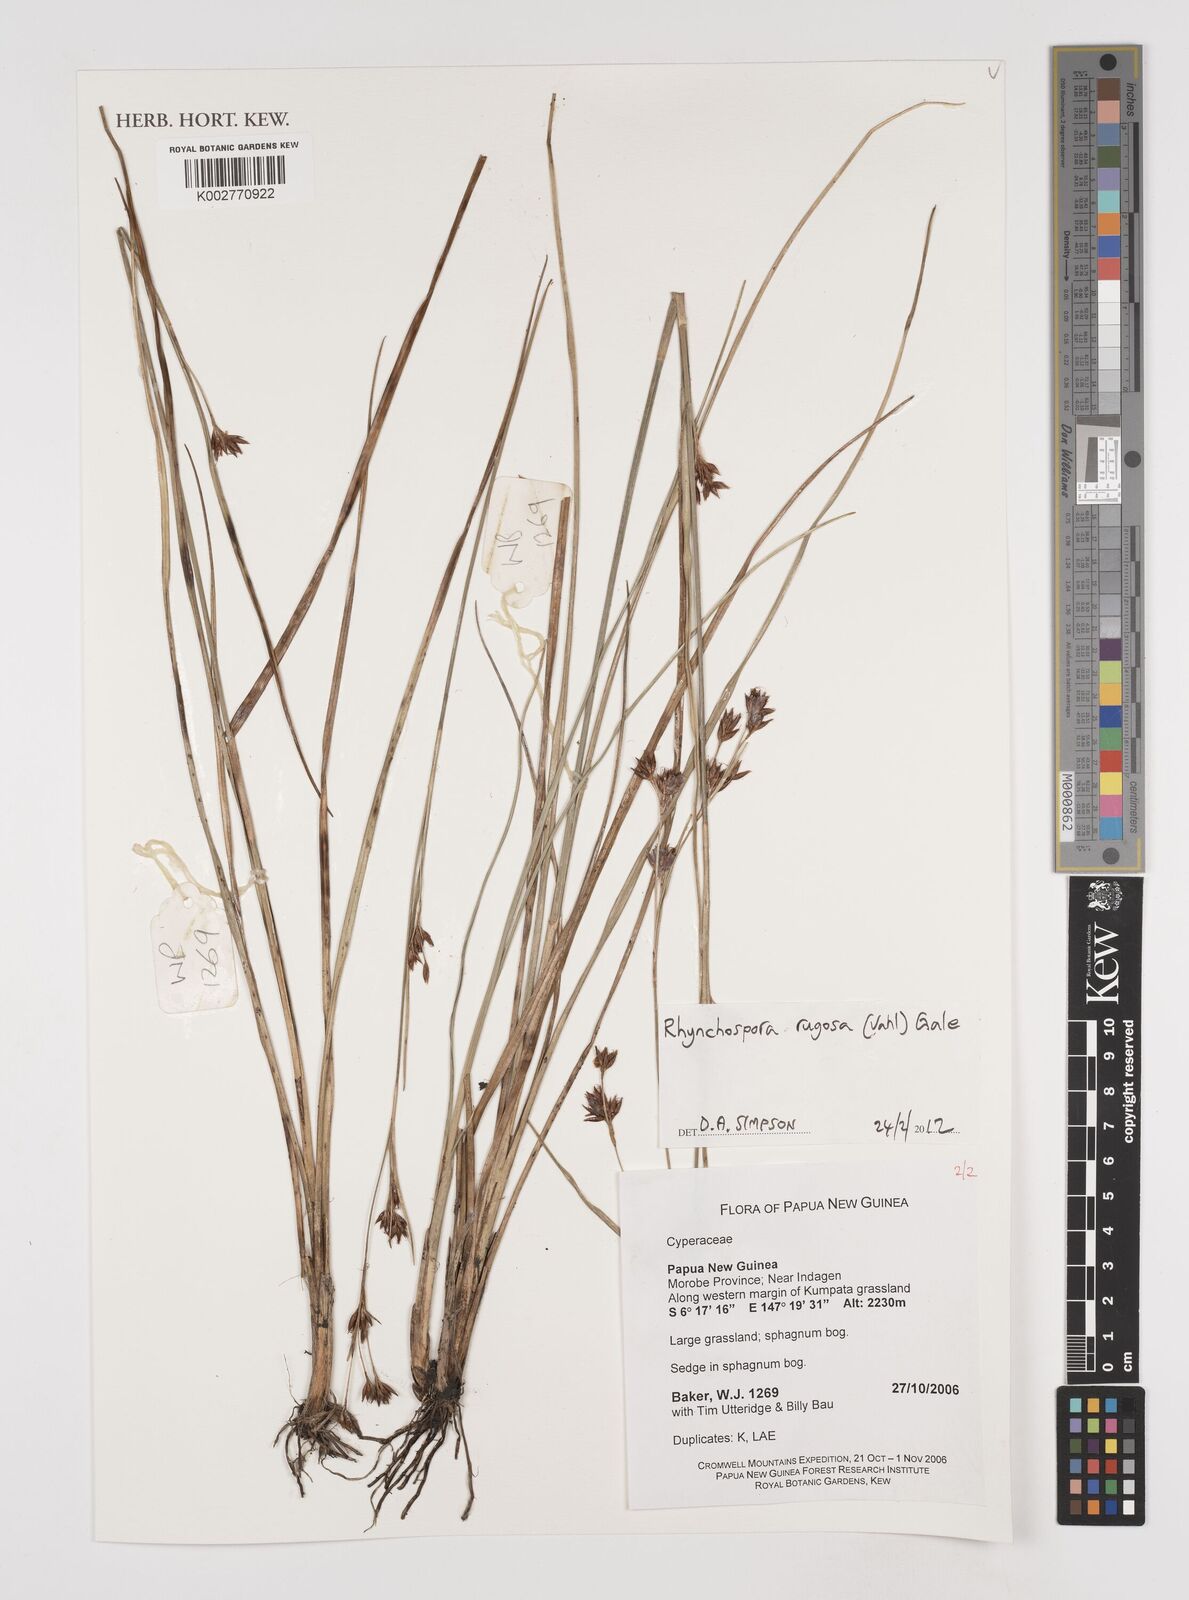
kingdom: Plantae
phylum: Tracheophyta
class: Liliopsida
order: Poales
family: Cyperaceae
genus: Rhynchospora
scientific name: Rhynchospora rugosa
